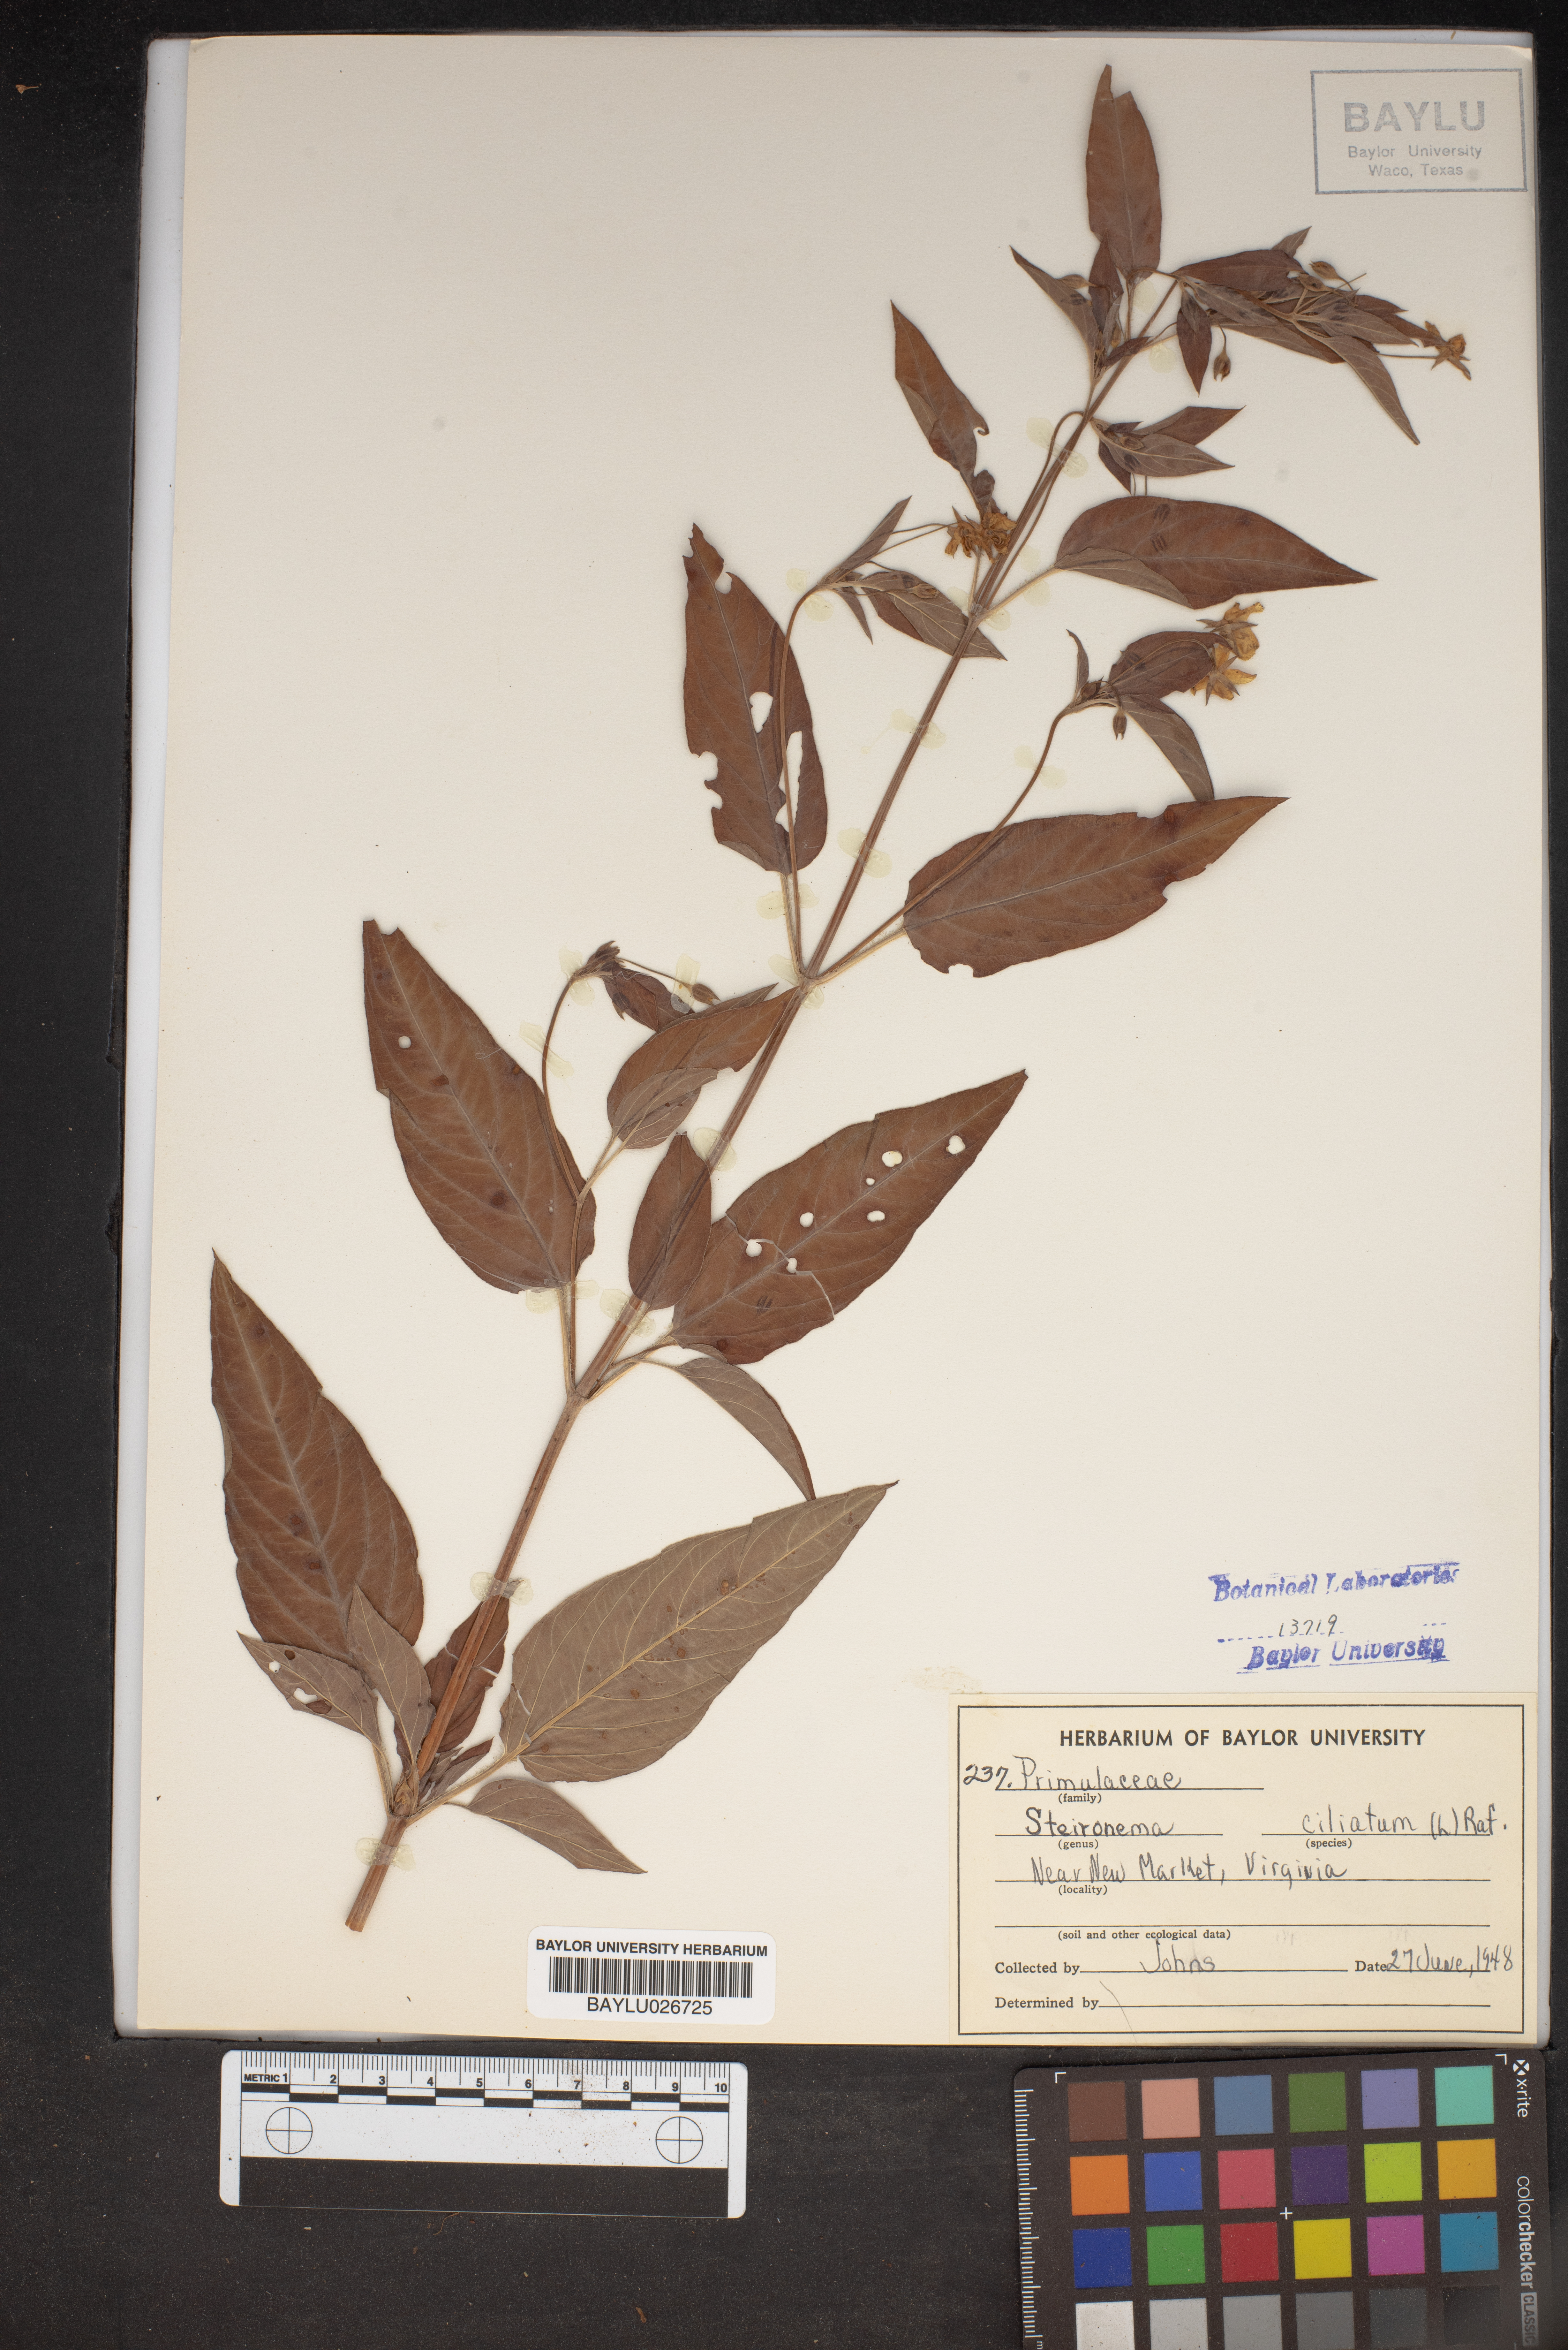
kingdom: Plantae
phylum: Tracheophyta
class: Magnoliopsida
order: Ericales
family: Primulaceae
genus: Lysimachia
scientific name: Lysimachia ciliata
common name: Fringed loosestrife
